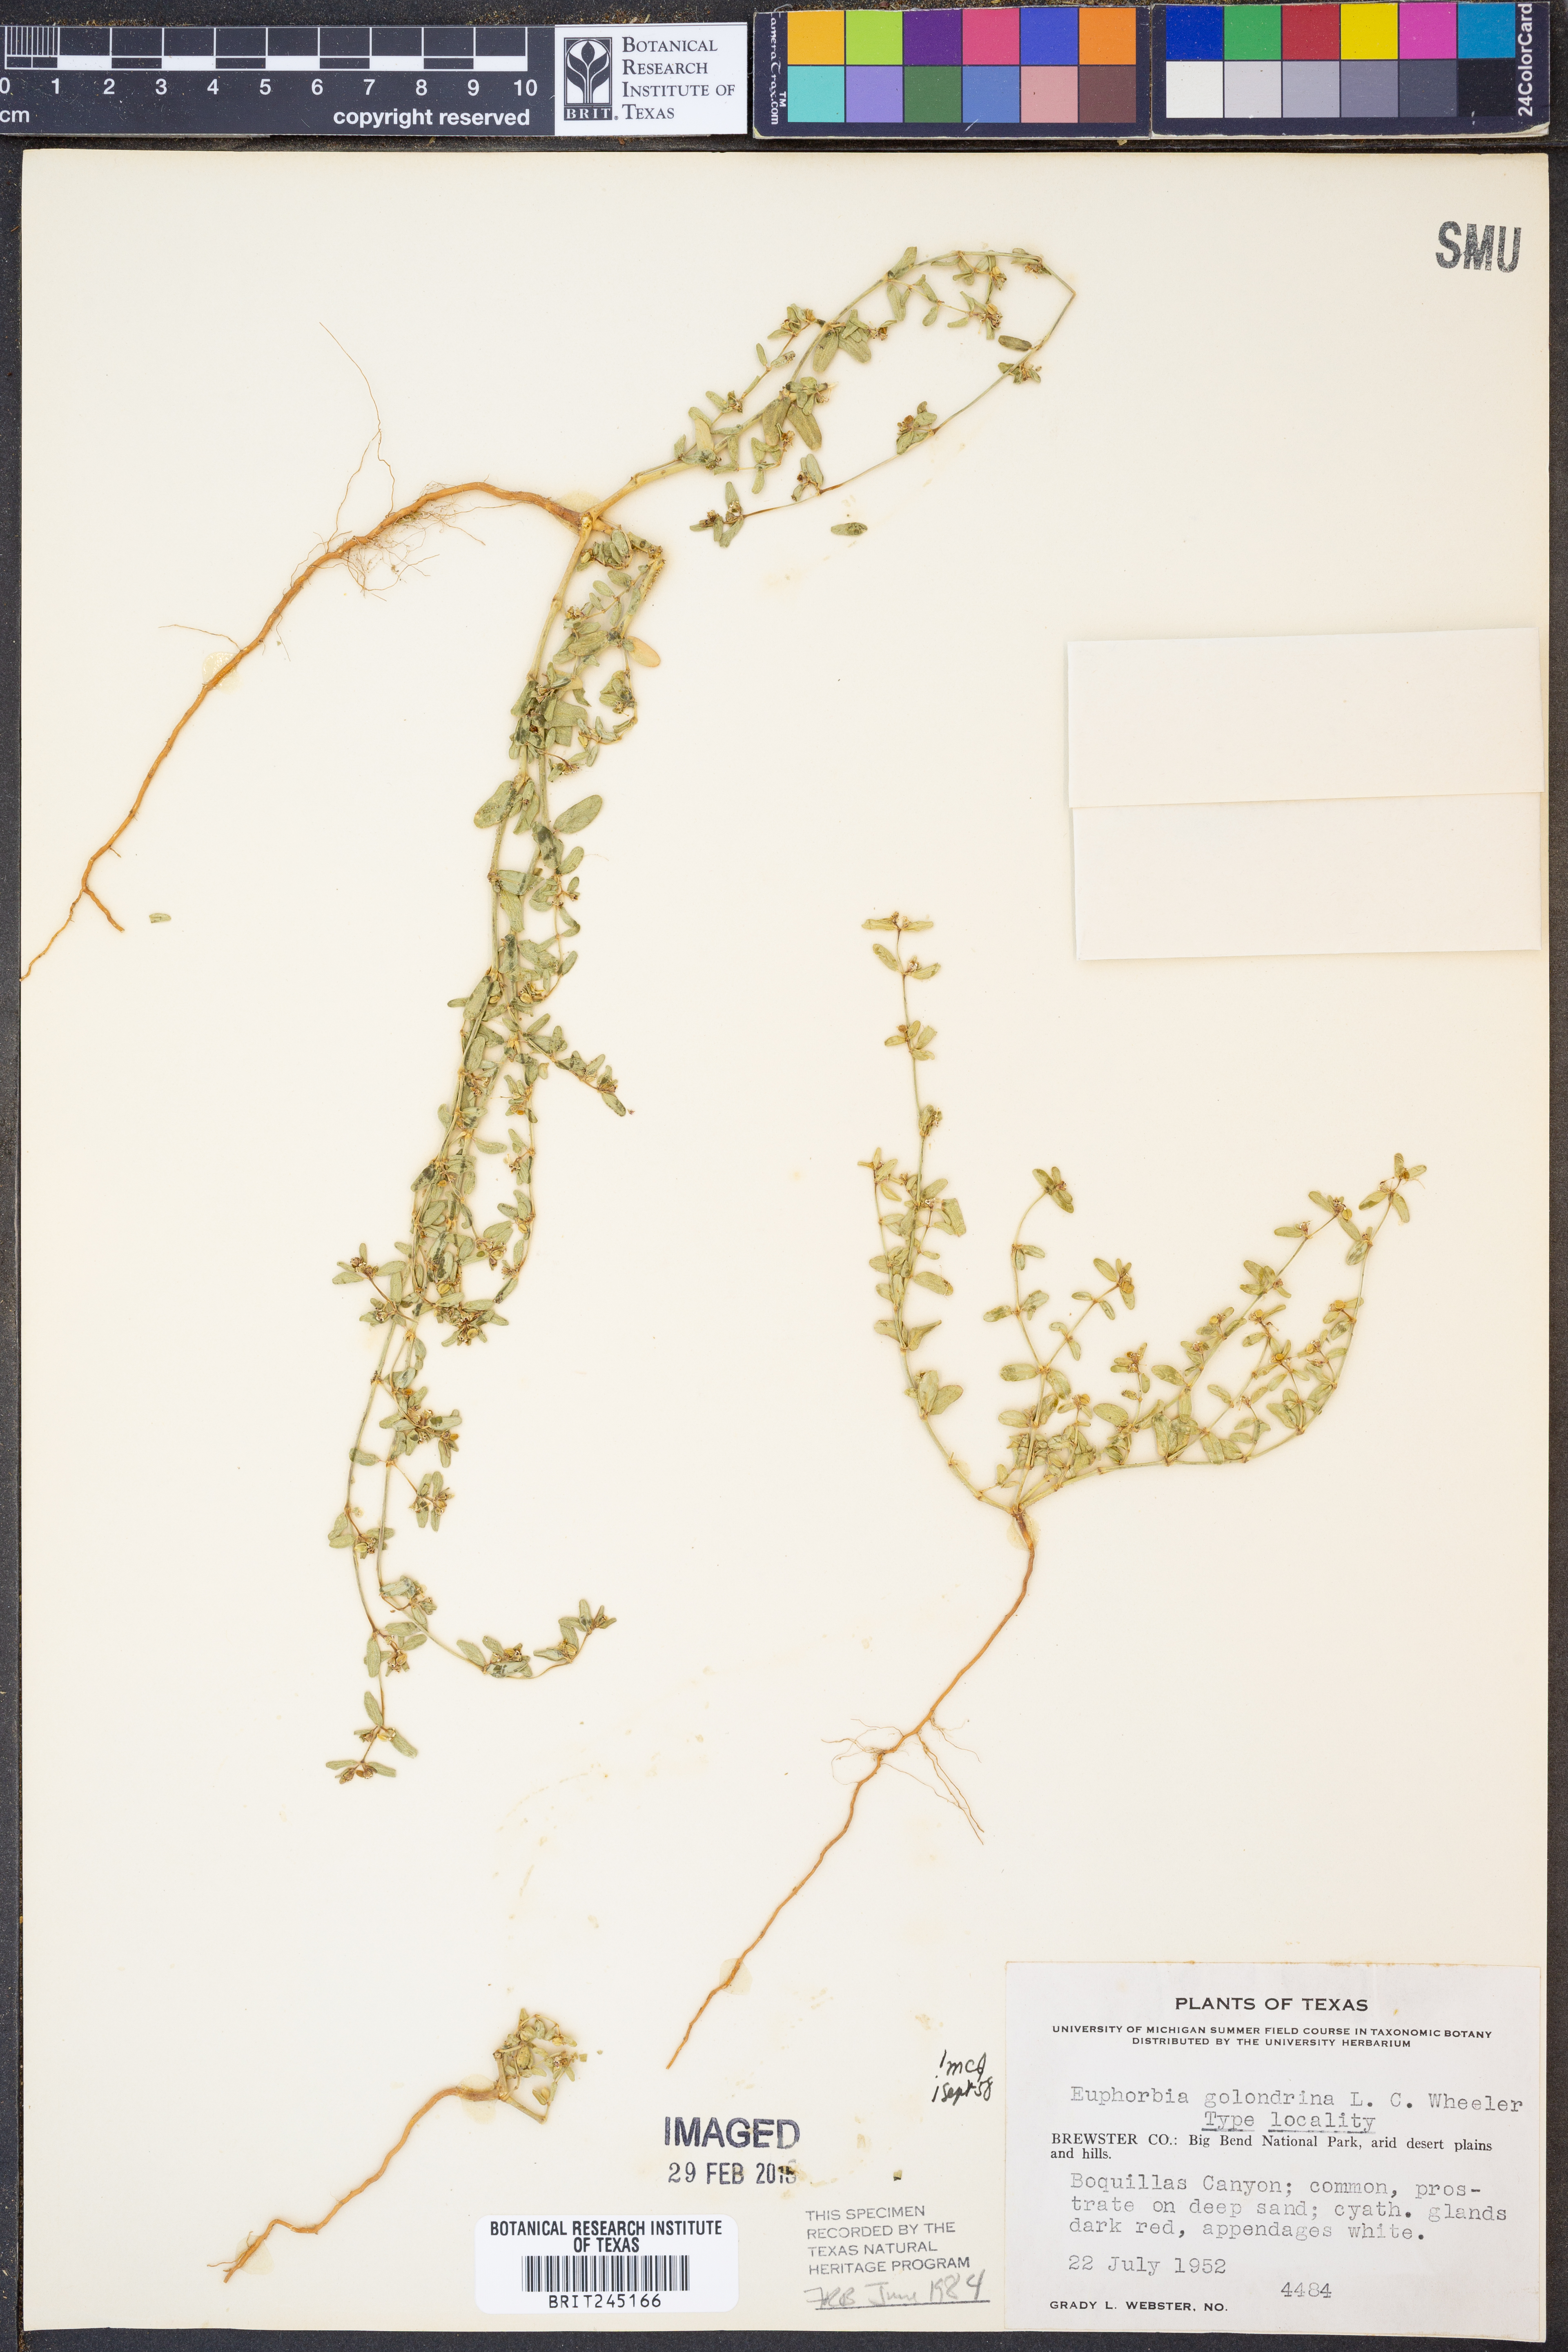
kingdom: Plantae
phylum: Tracheophyta
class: Magnoliopsida
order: Malpighiales
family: Euphorbiaceae
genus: Euphorbia
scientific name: Euphorbia golondrina
